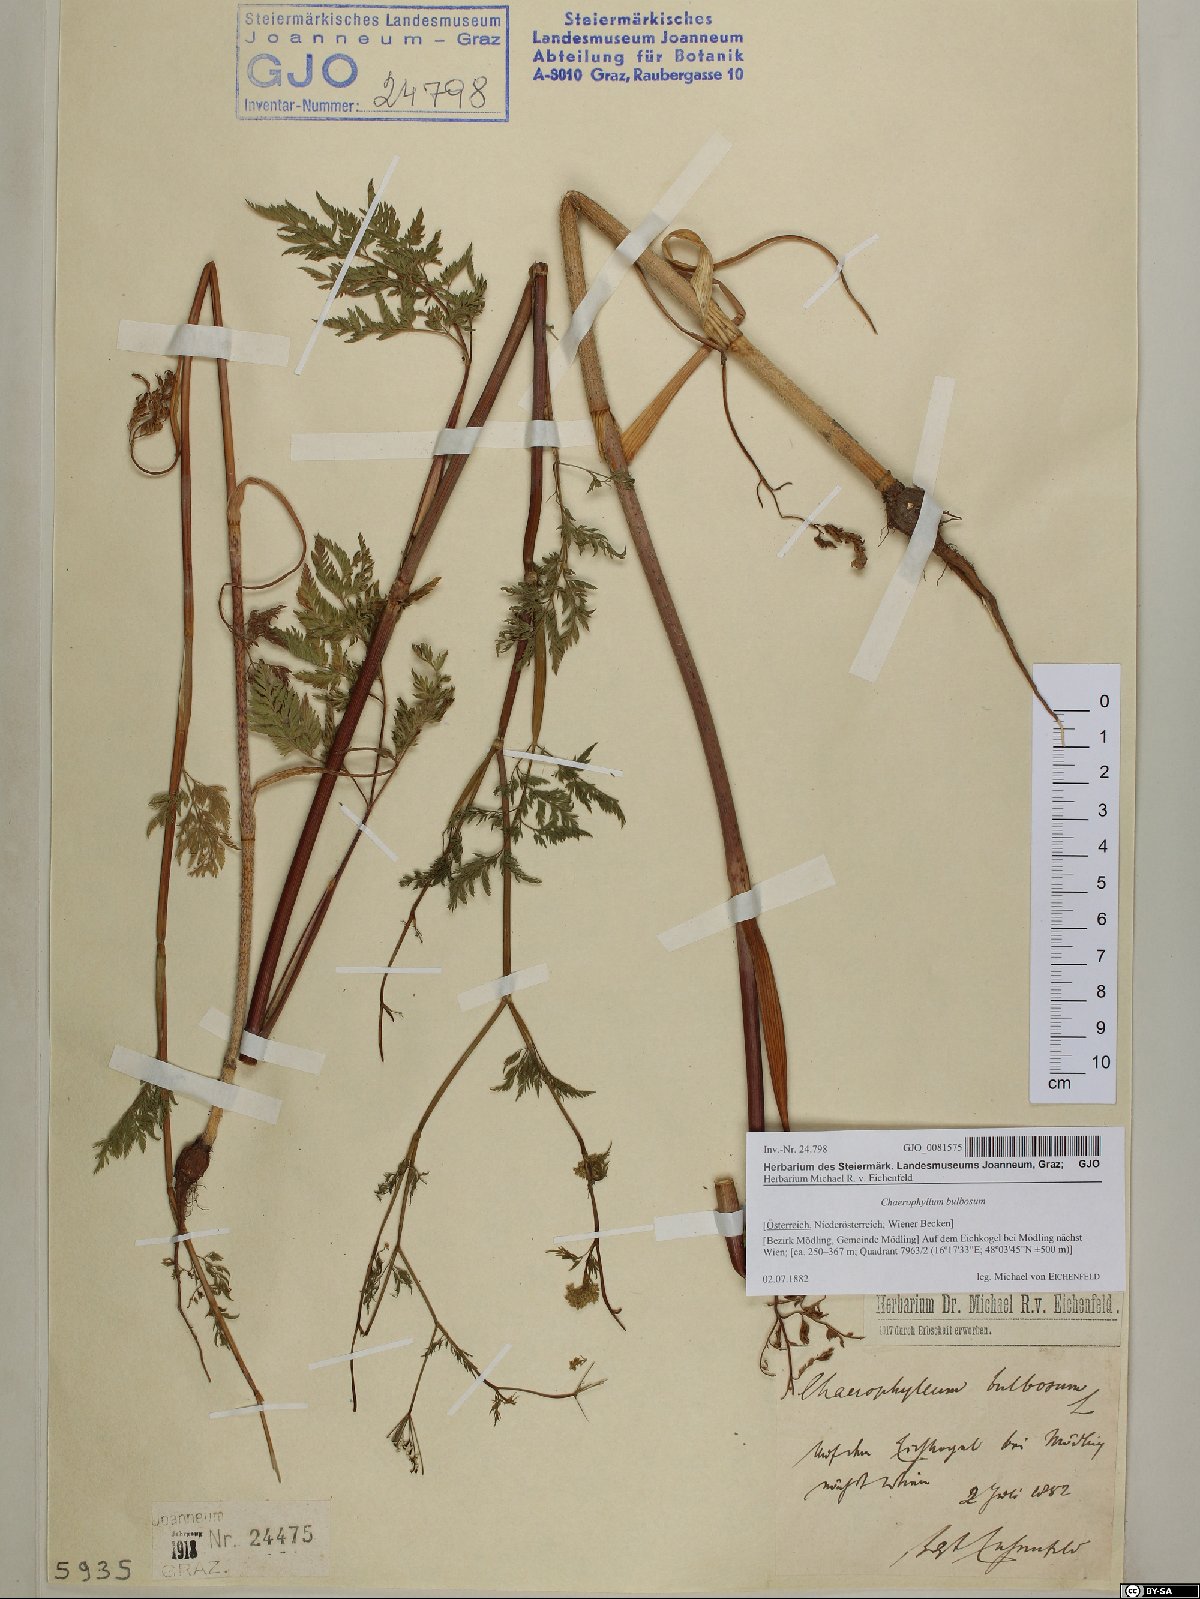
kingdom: Plantae
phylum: Tracheophyta
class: Magnoliopsida
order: Apiales
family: Apiaceae
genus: Chaerophyllum
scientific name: Chaerophyllum bulbosum
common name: Bulbous chervil
